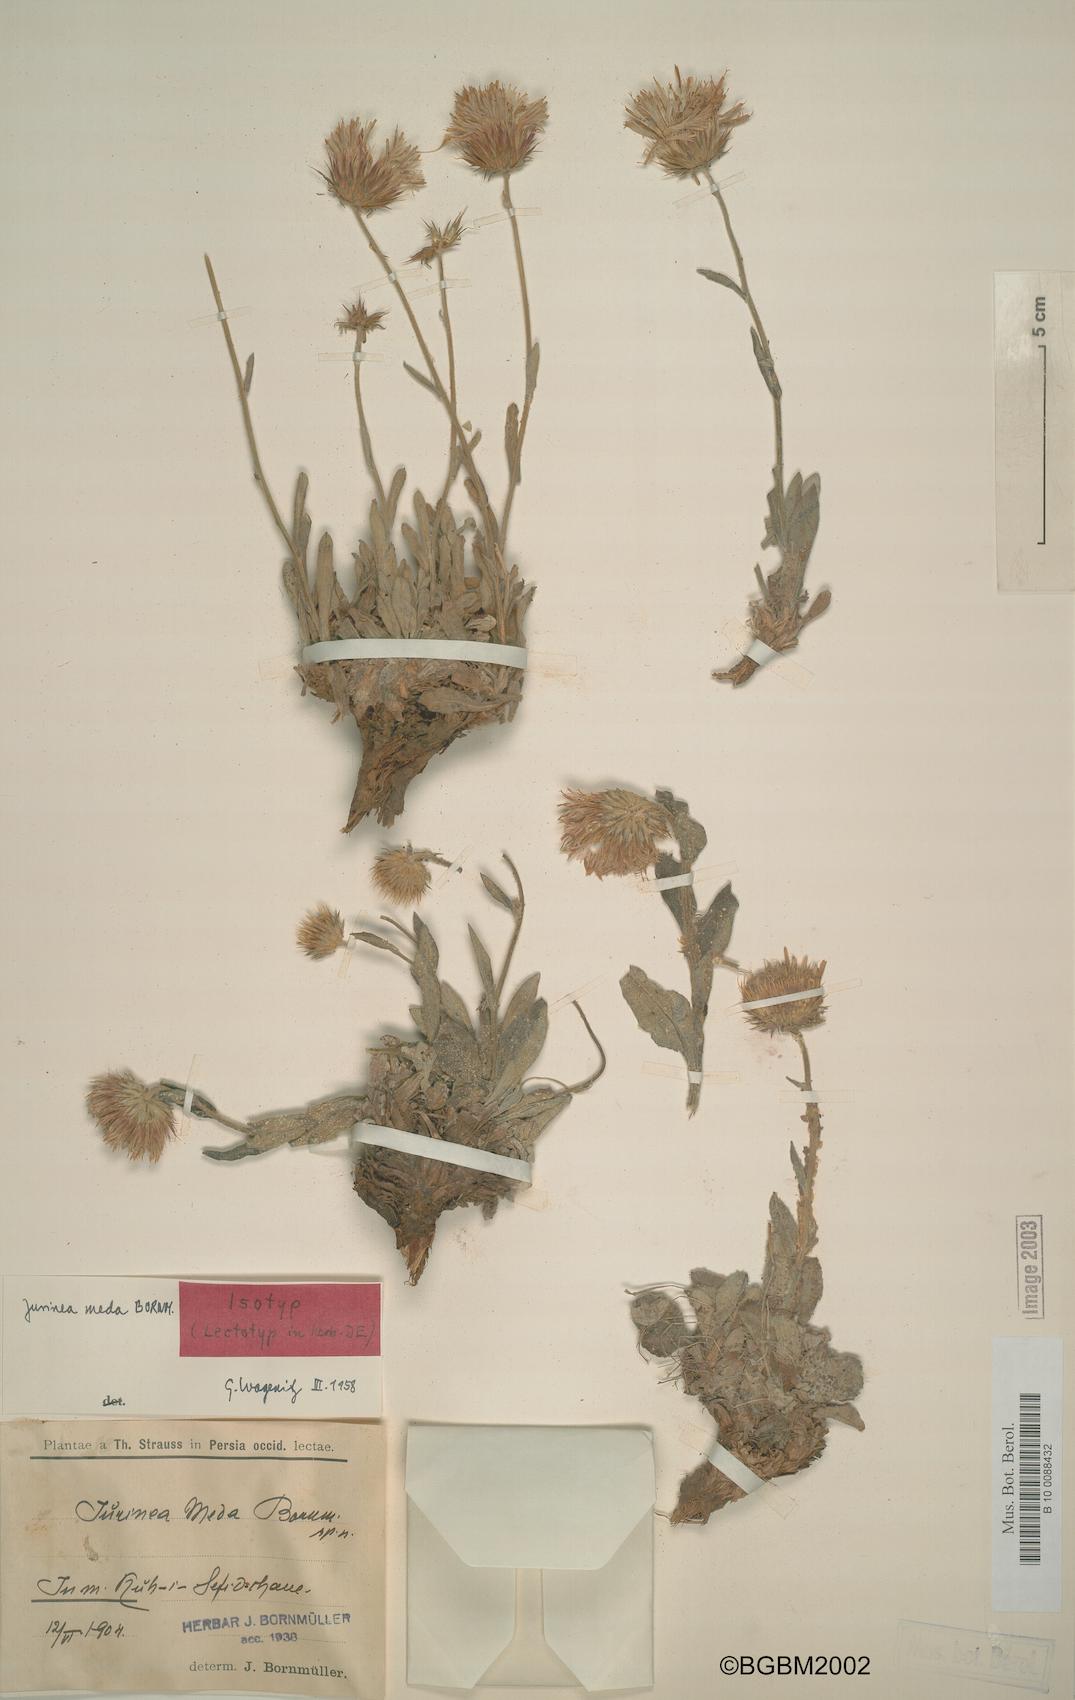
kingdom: Plantae
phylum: Tracheophyta
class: Magnoliopsida
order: Asterales
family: Asteraceae
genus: Jurinea
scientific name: Jurinea meda
